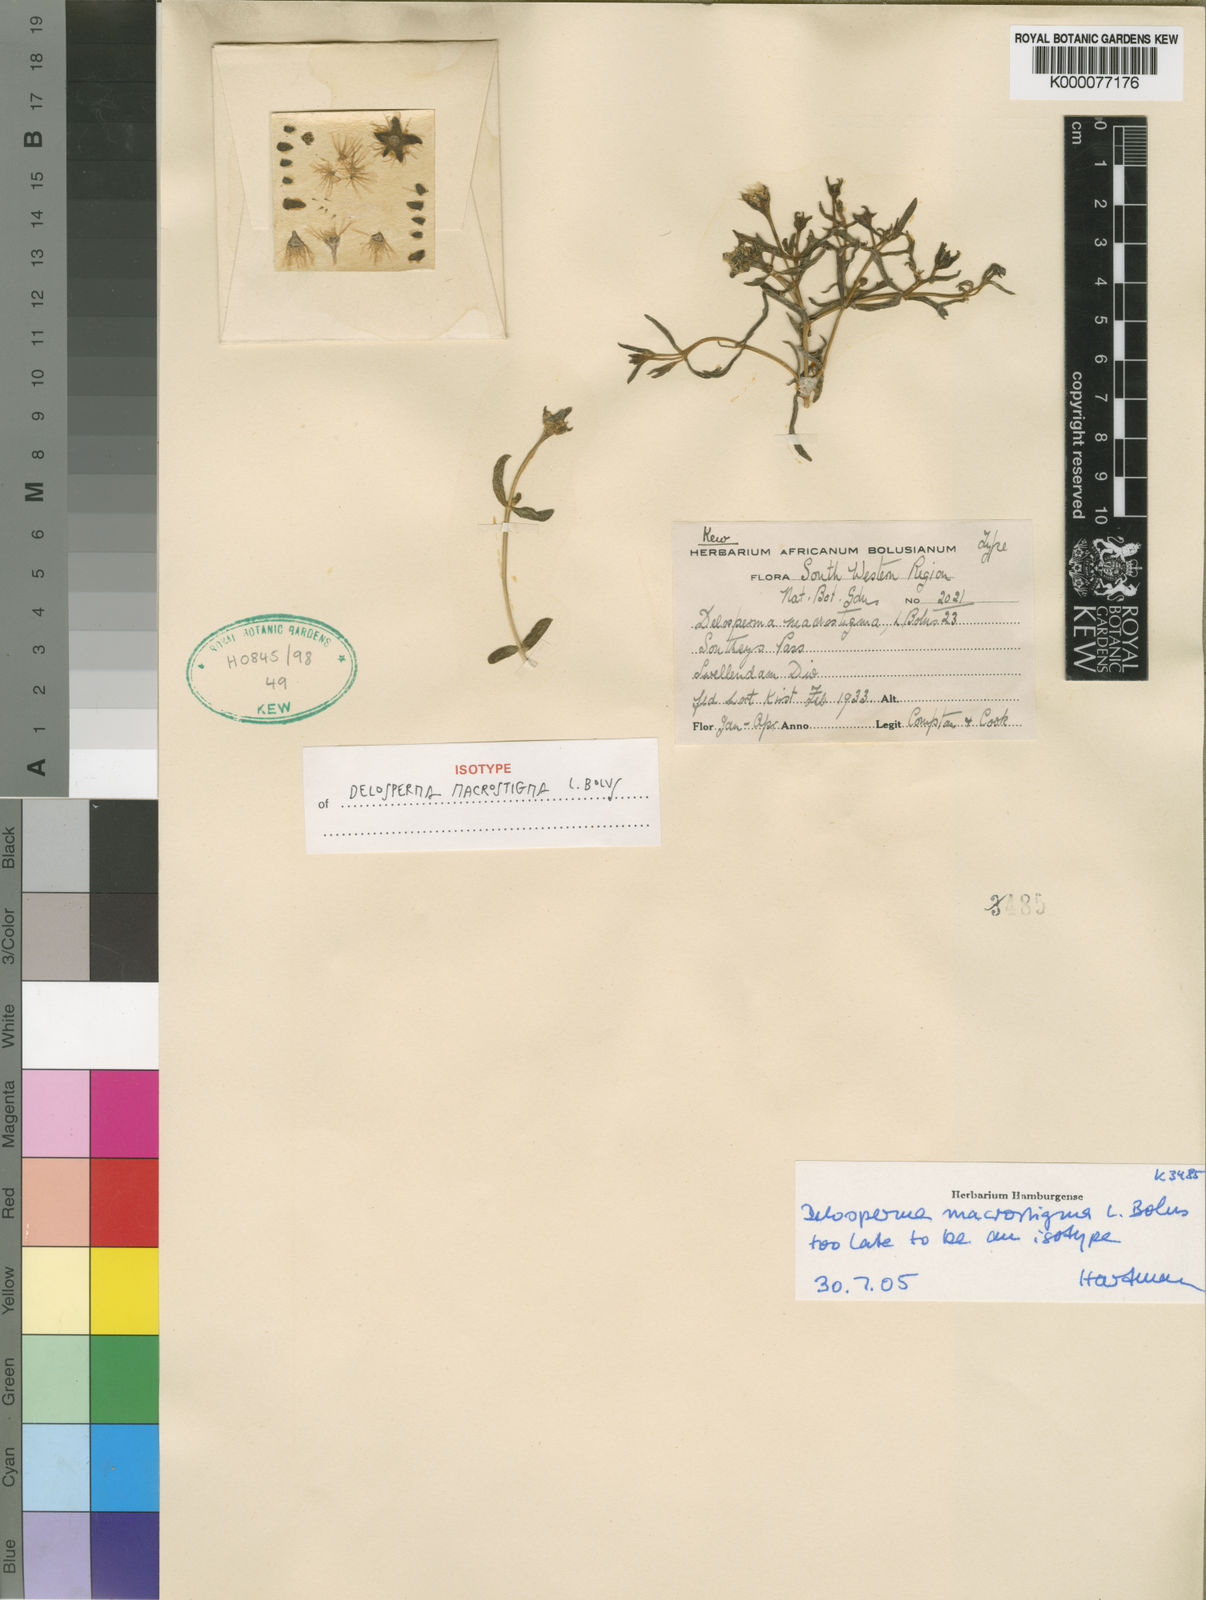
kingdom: Plantae
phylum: Tracheophyta
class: Magnoliopsida
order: Caryophyllales
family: Aizoaceae
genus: Delosperma
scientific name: Delosperma macrostigma
